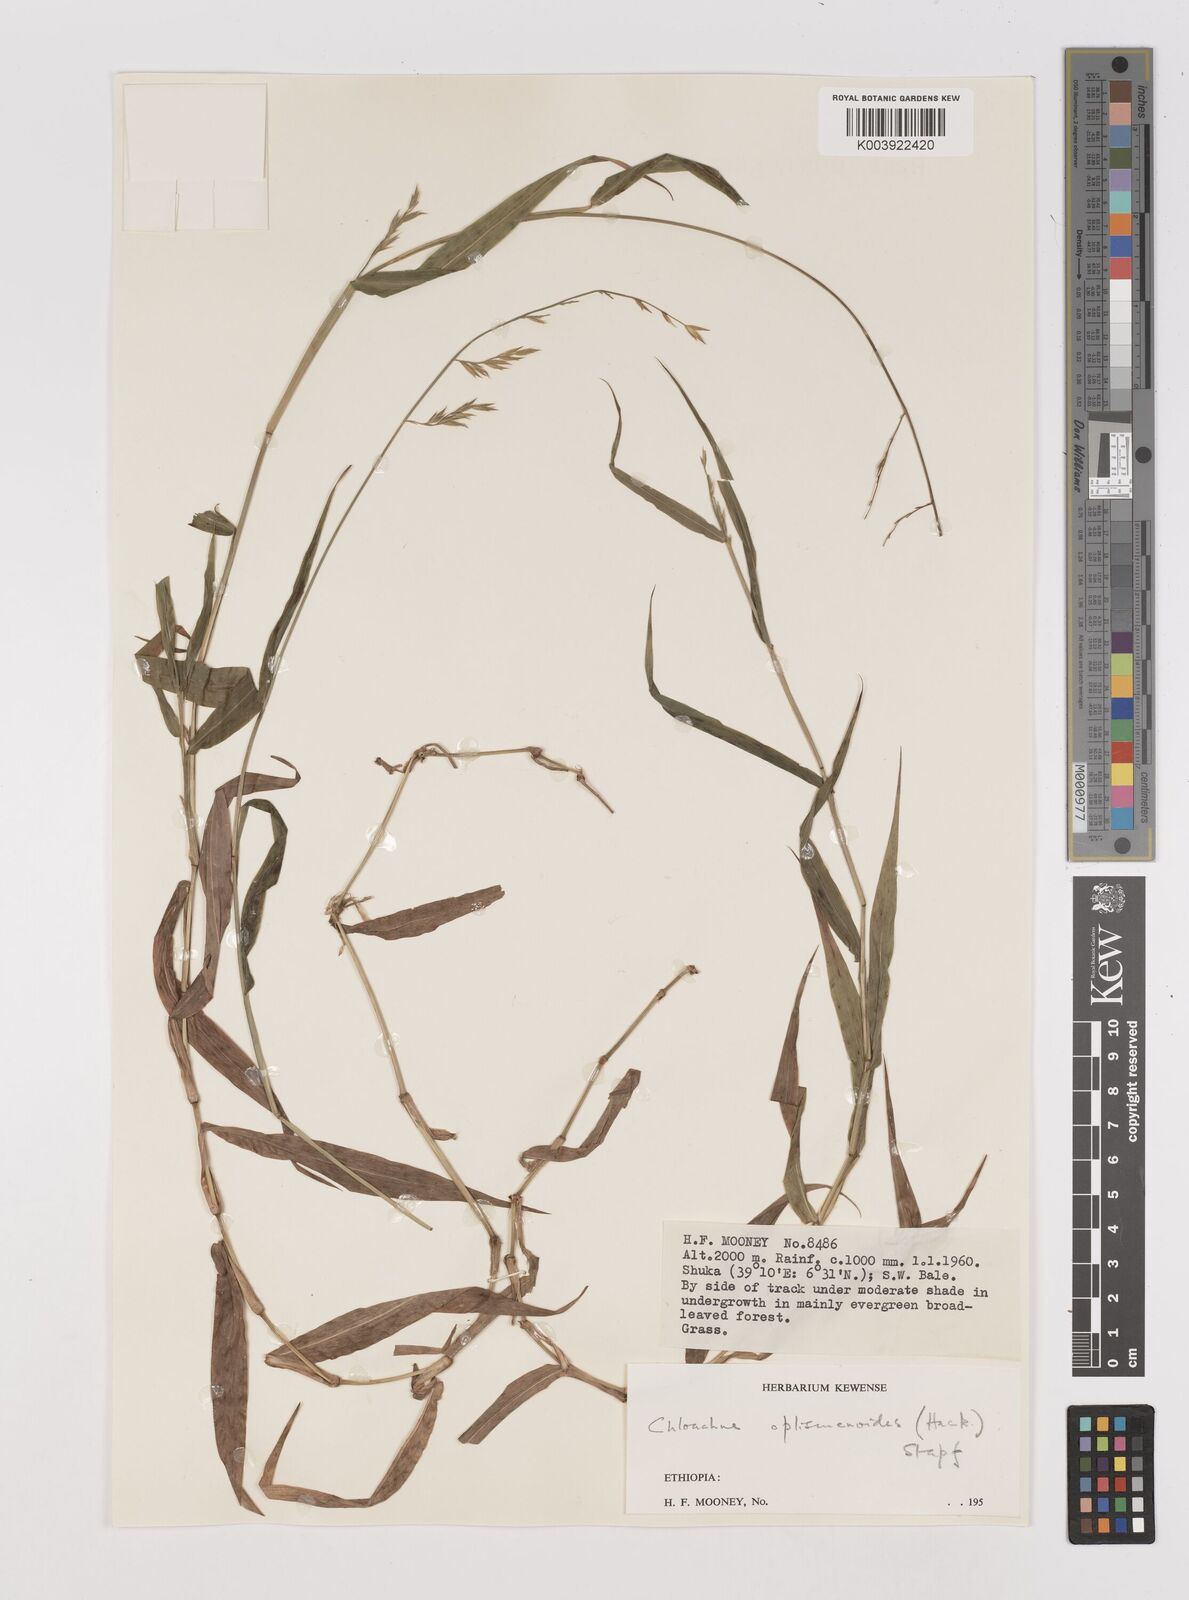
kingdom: Plantae
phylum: Tracheophyta
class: Liliopsida
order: Poales
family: Poaceae
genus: Poecilostachys
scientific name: Poecilostachys oplismenoides
